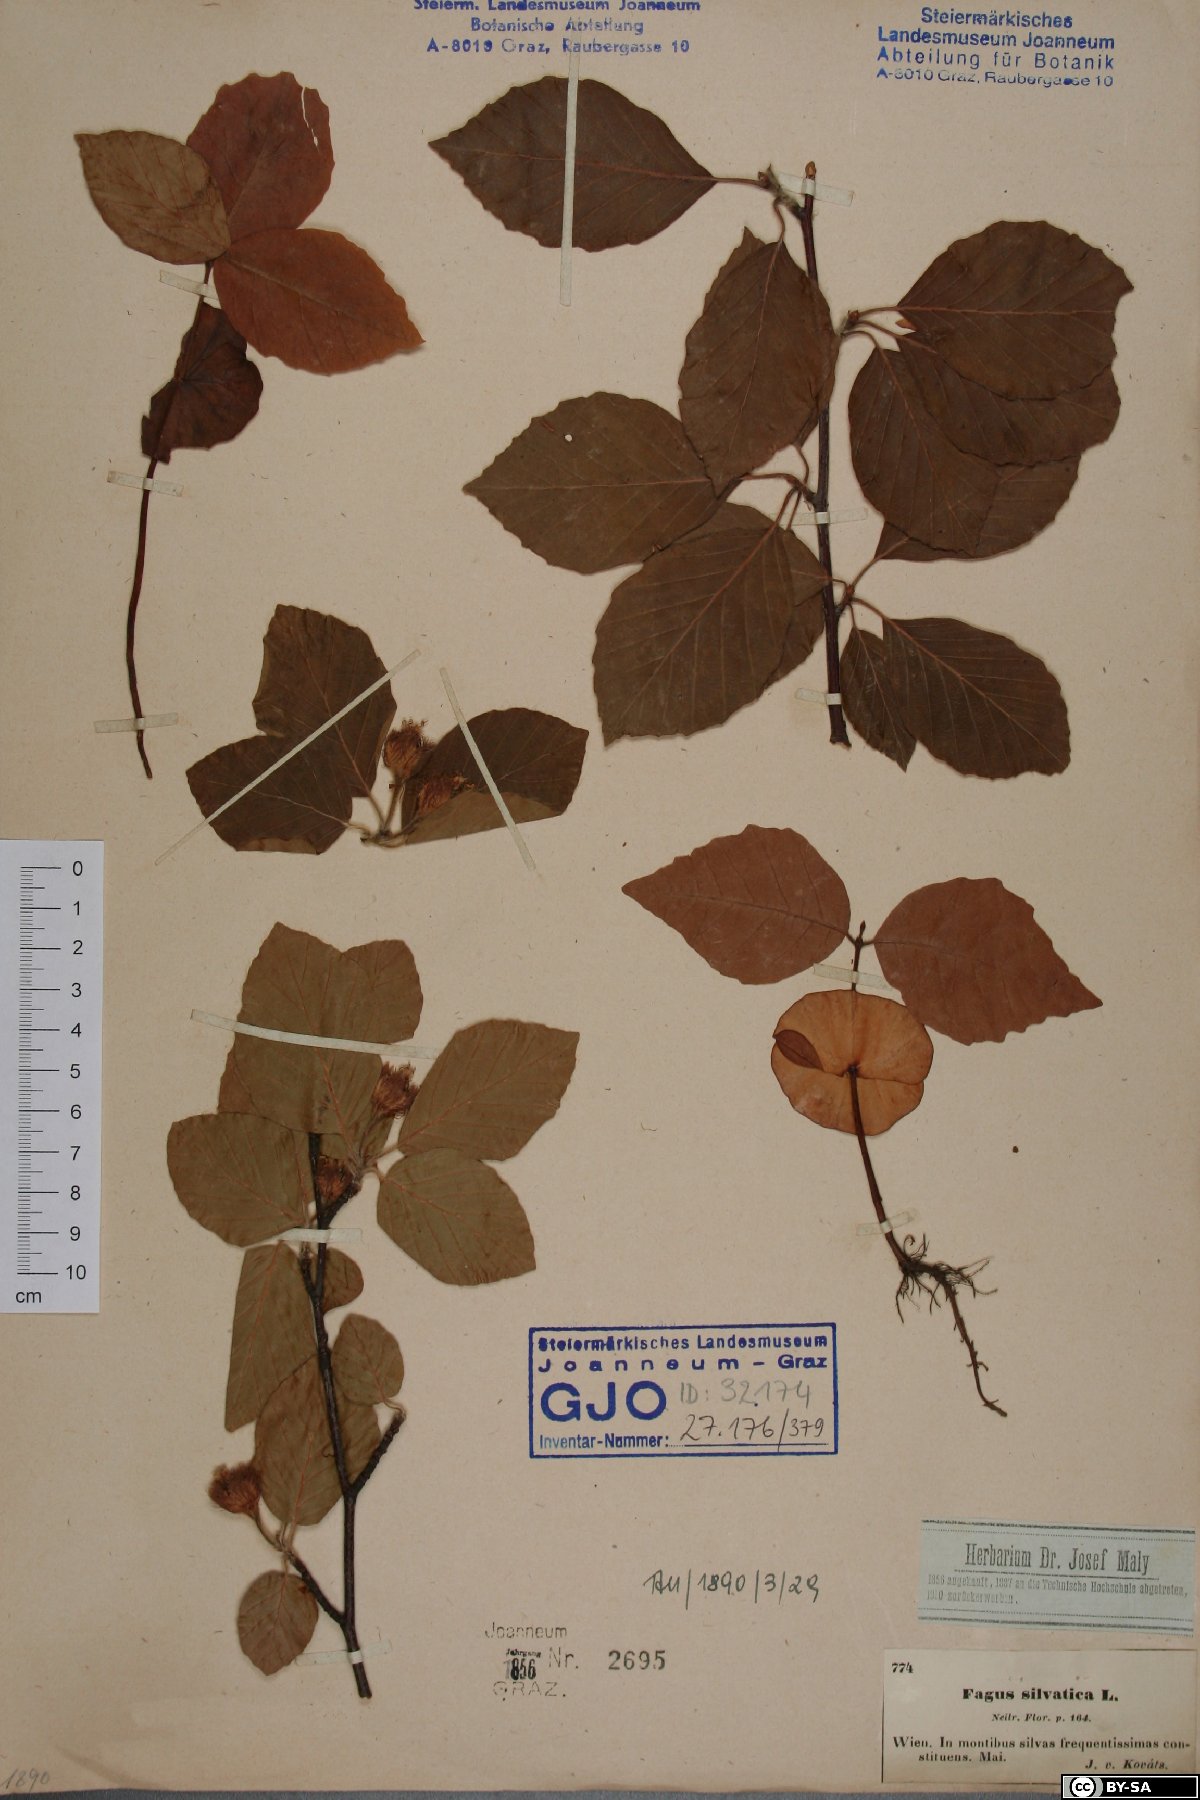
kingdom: Plantae
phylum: Tracheophyta
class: Magnoliopsida
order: Fagales
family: Fagaceae
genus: Fagus
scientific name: Fagus sylvatica
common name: Beech
